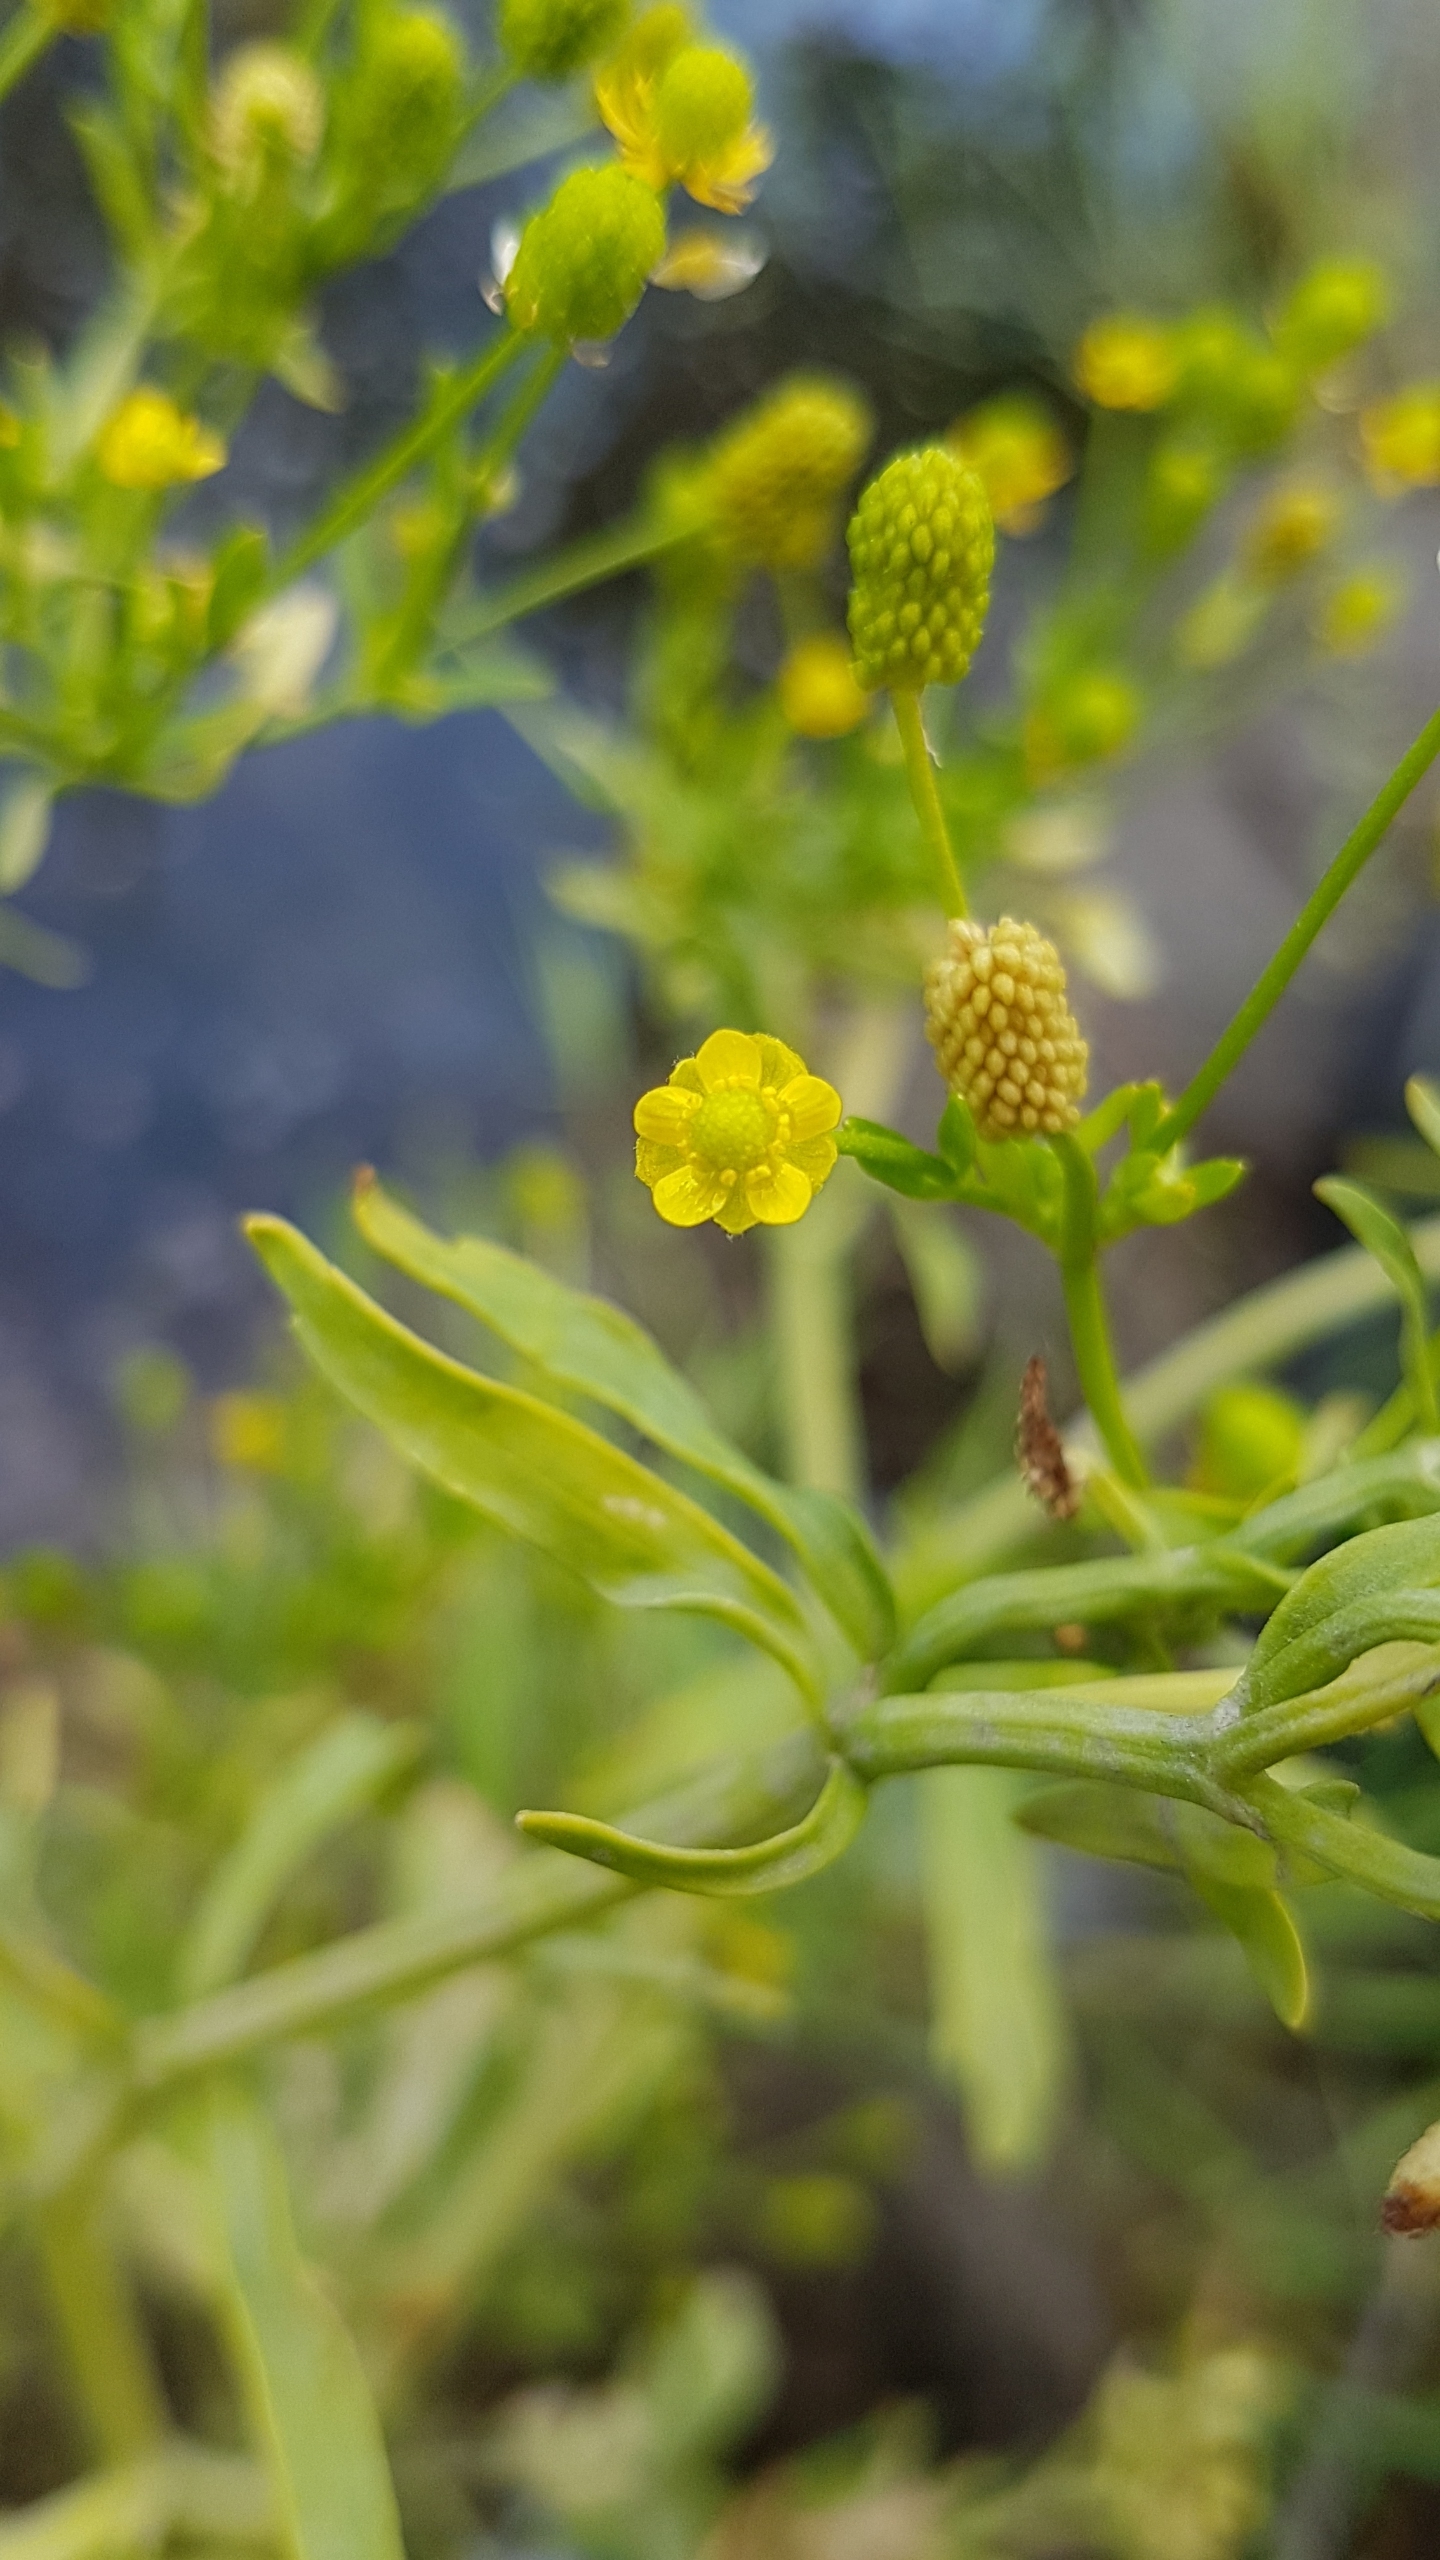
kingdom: Plantae
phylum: Tracheophyta
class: Magnoliopsida
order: Ranunculales
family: Ranunculaceae
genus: Ranunculus
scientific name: Ranunculus sceleratus
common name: Tigger-ranunkel
